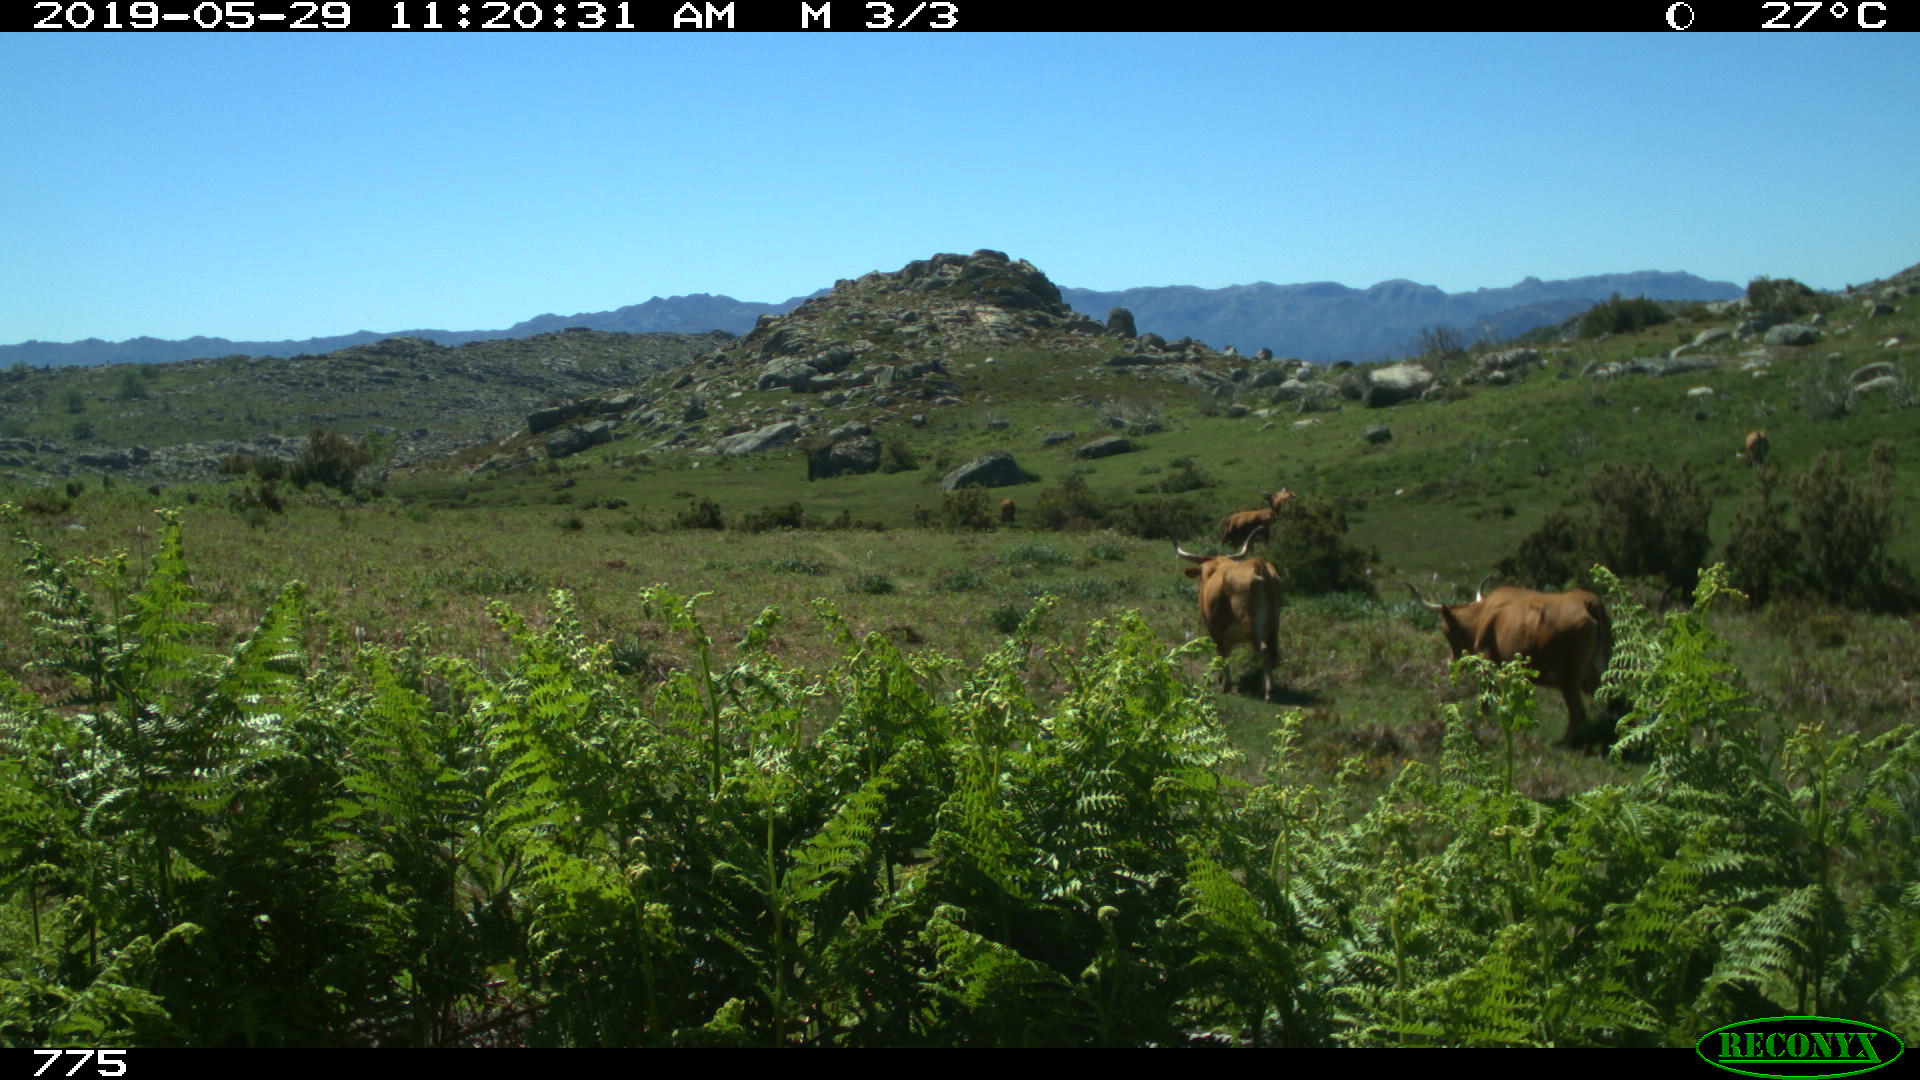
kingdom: Animalia
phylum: Chordata
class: Mammalia
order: Artiodactyla
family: Bovidae
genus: Bos
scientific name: Bos taurus
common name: Domesticated cattle
